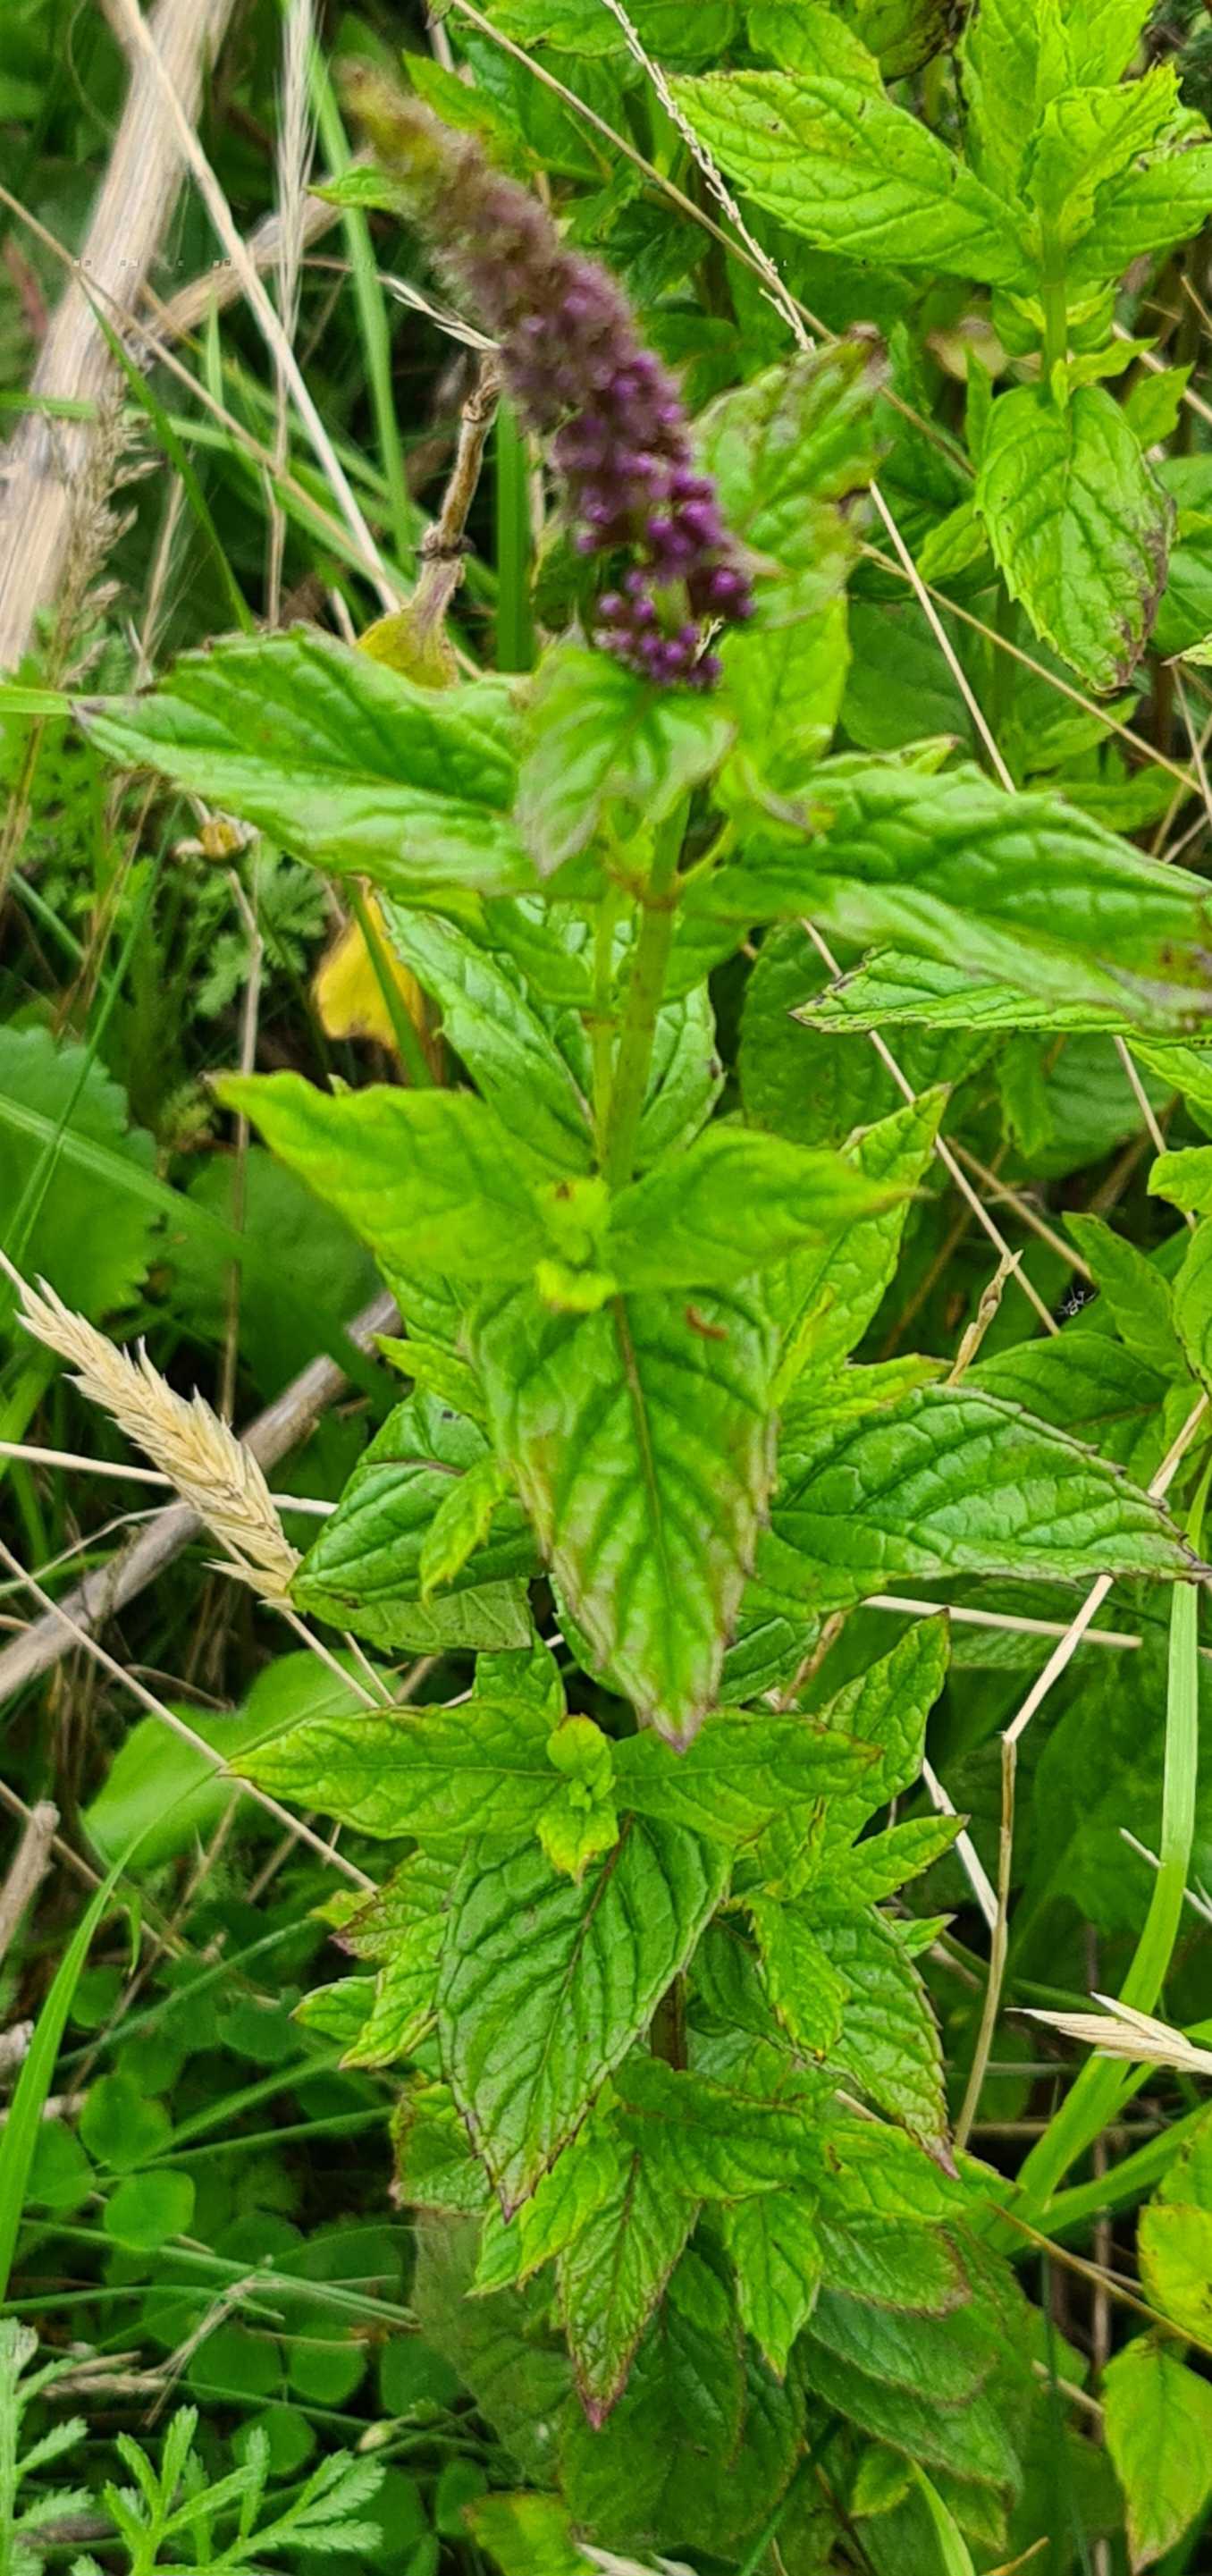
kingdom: Plantae
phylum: Tracheophyta
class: Magnoliopsida
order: Lamiales
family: Lamiaceae
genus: Mentha
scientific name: Mentha spicata
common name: Grøn mynte
